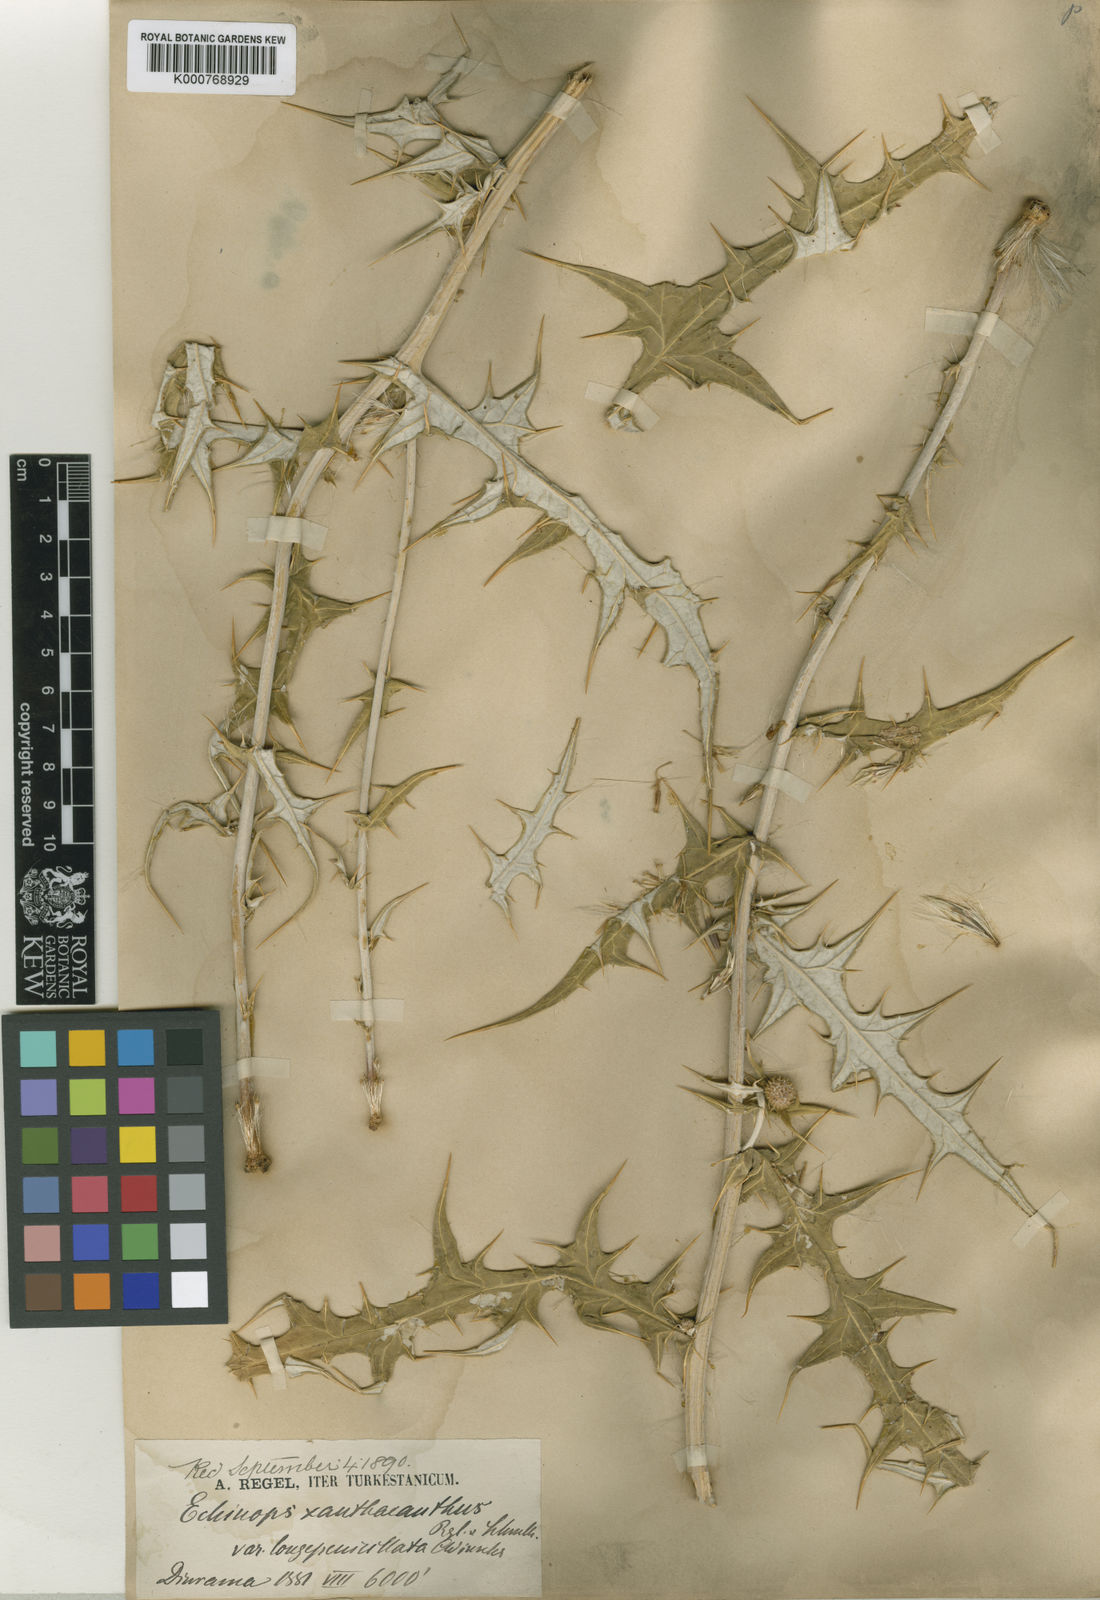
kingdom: Plantae
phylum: Tracheophyta
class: Magnoliopsida
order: Asterales
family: Asteraceae
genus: Echinops
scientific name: Echinops xanthacanthus
